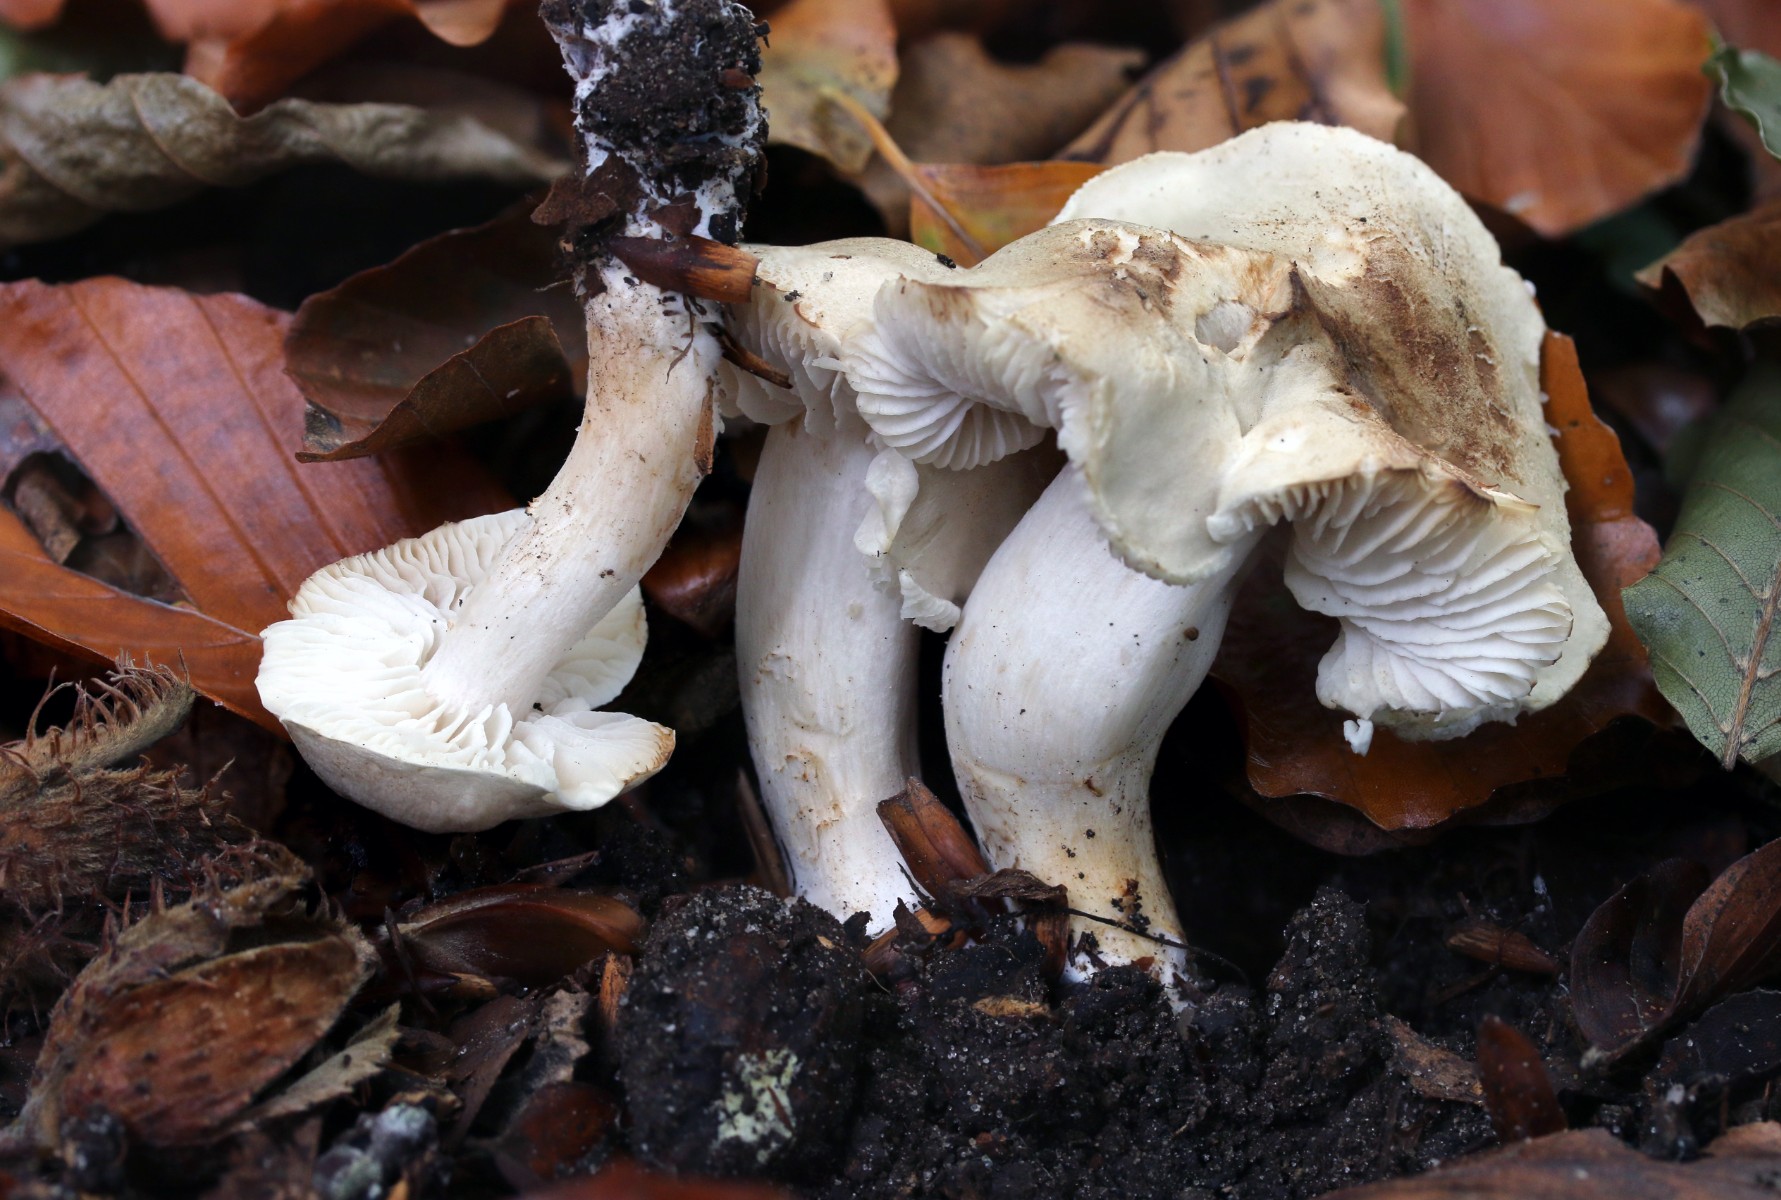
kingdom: Fungi
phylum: Basidiomycota
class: Agaricomycetes
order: Agaricales
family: Tricholomataceae
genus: Tricholoma
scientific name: Tricholoma lascivum
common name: stinkende ridderhat
